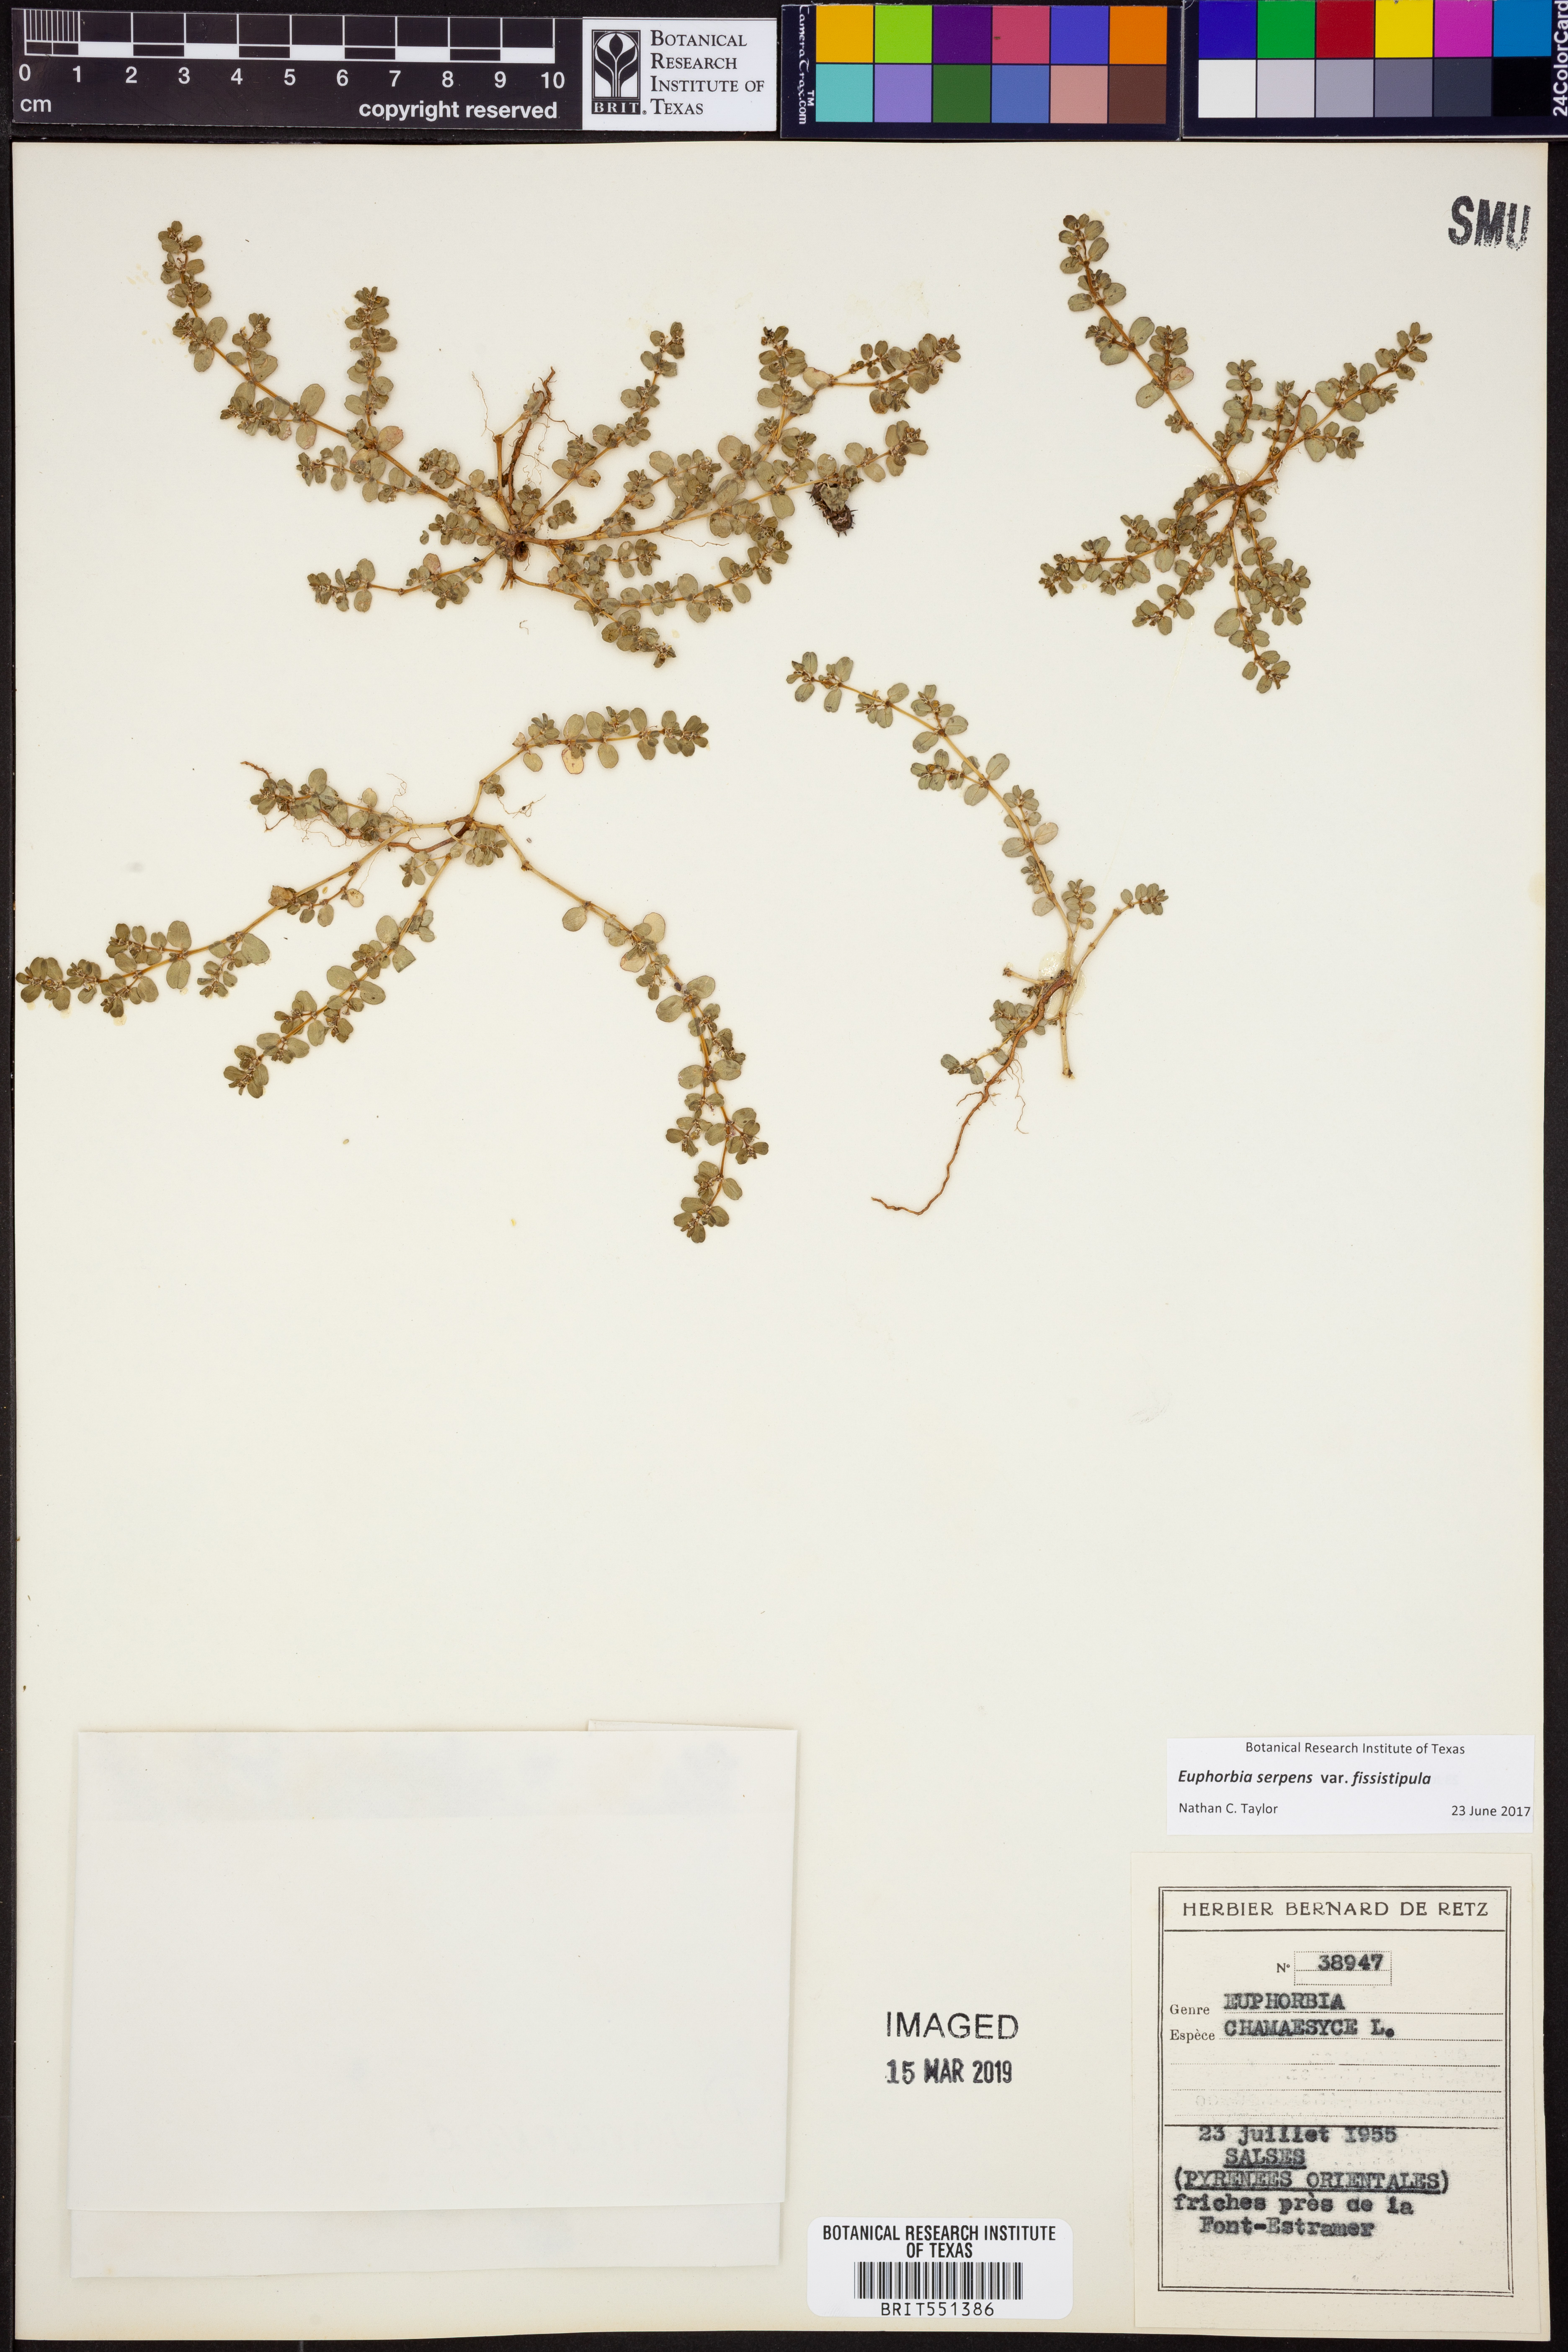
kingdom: Plantae
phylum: Tracheophyta
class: Magnoliopsida
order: Malpighiales
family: Euphorbiaceae
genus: Euphorbia
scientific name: Euphorbia serpens
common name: Matted sandmat
